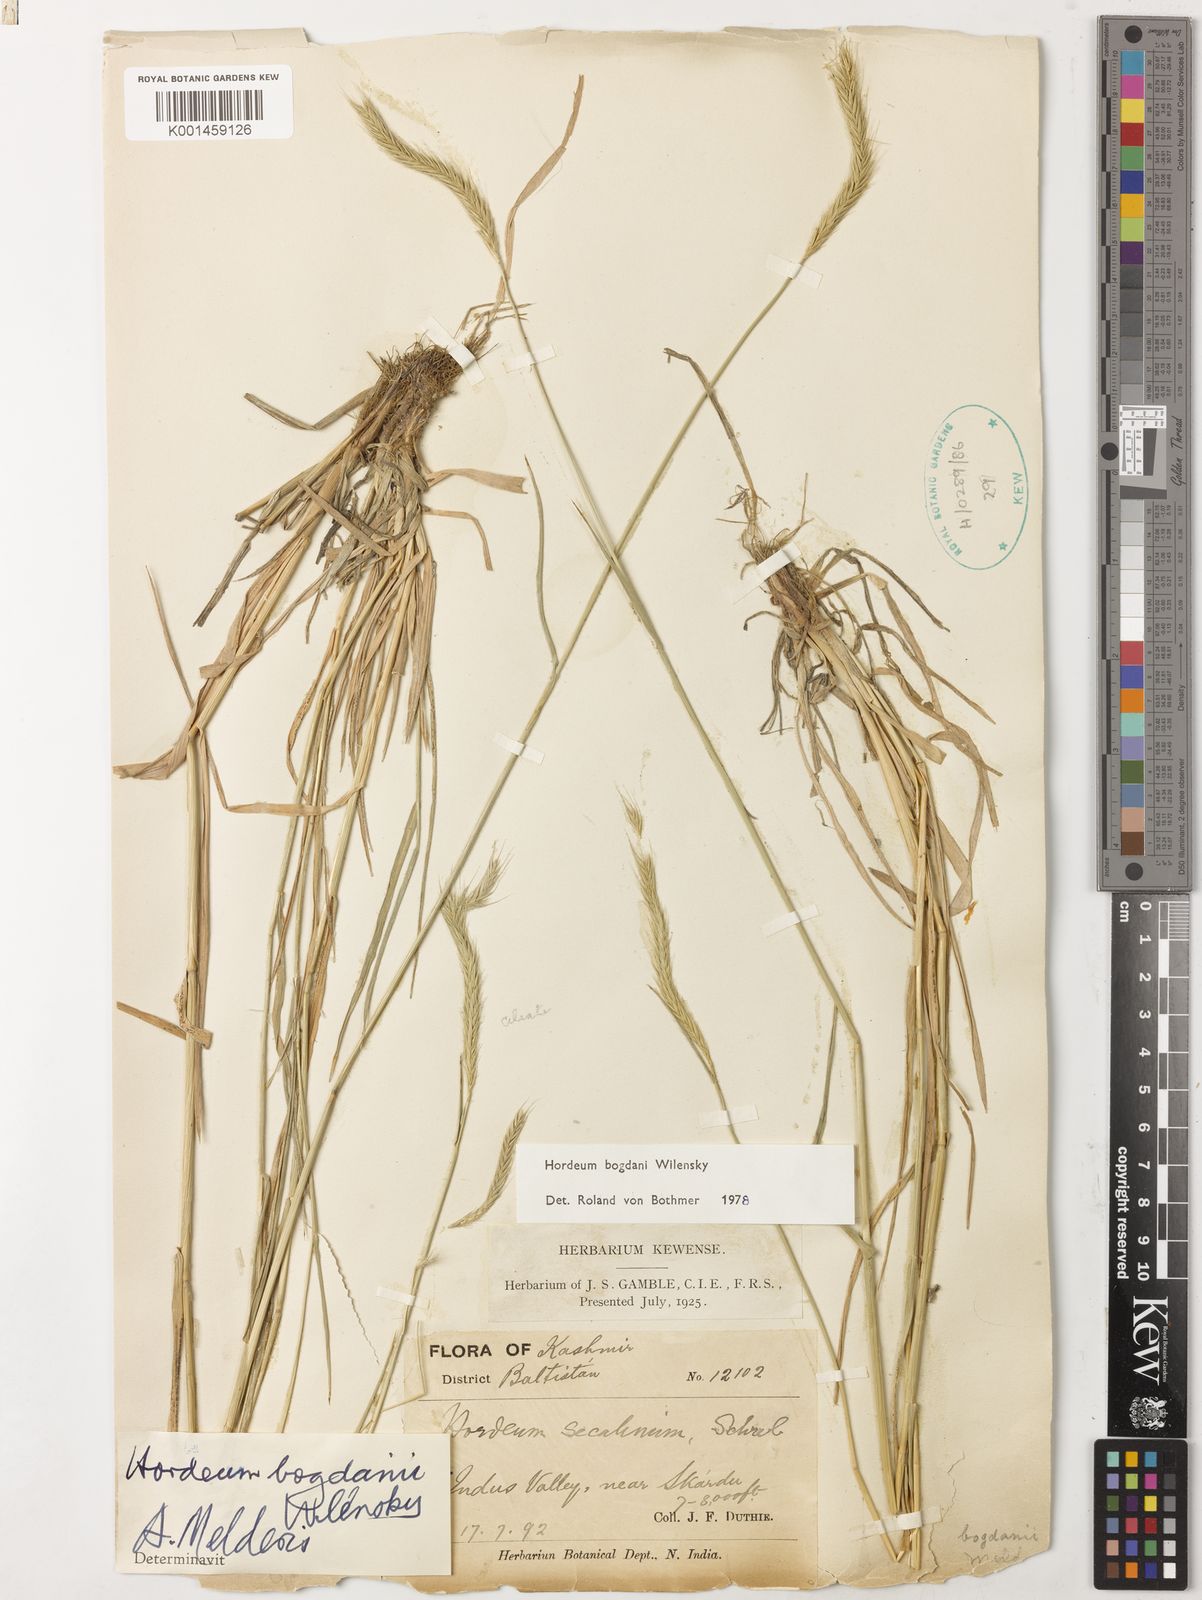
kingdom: Plantae
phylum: Tracheophyta
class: Liliopsida
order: Poales
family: Poaceae
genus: Hordeum
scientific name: Hordeum bogdanii
